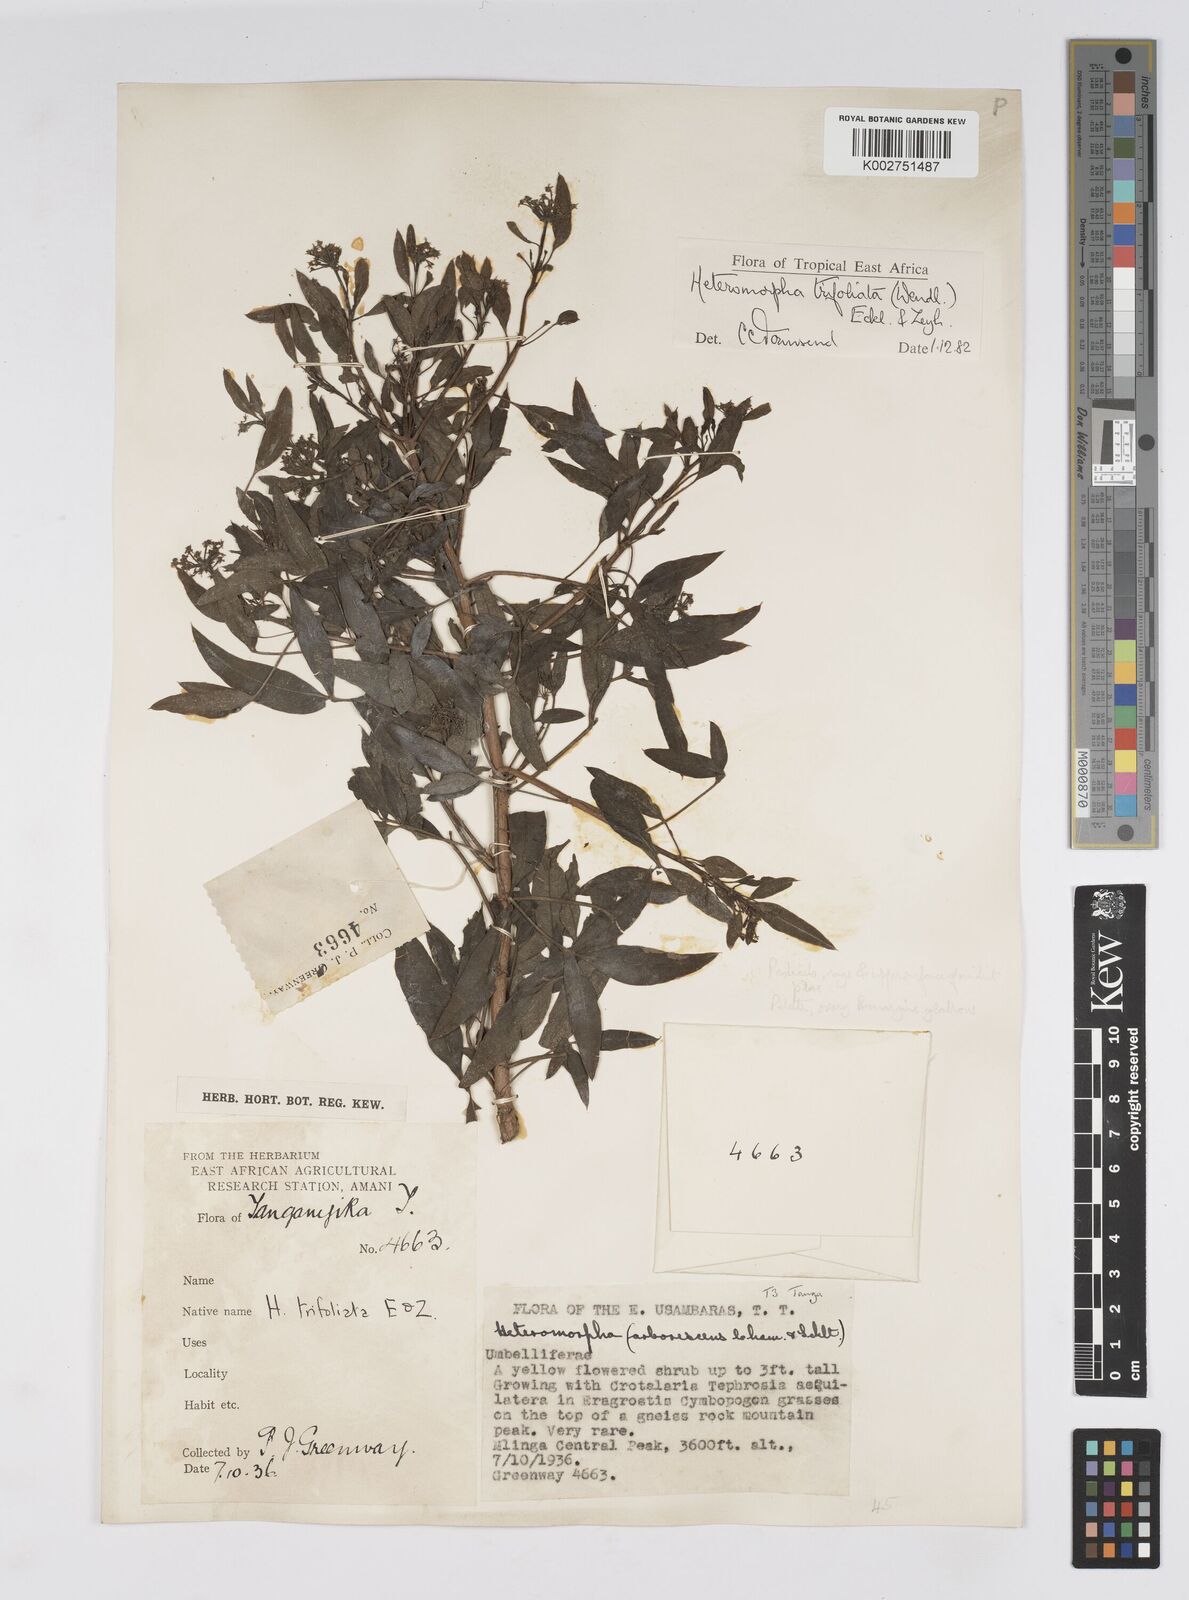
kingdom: Plantae
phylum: Tracheophyta
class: Magnoliopsida
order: Apiales
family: Apiaceae
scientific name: Apiaceae
